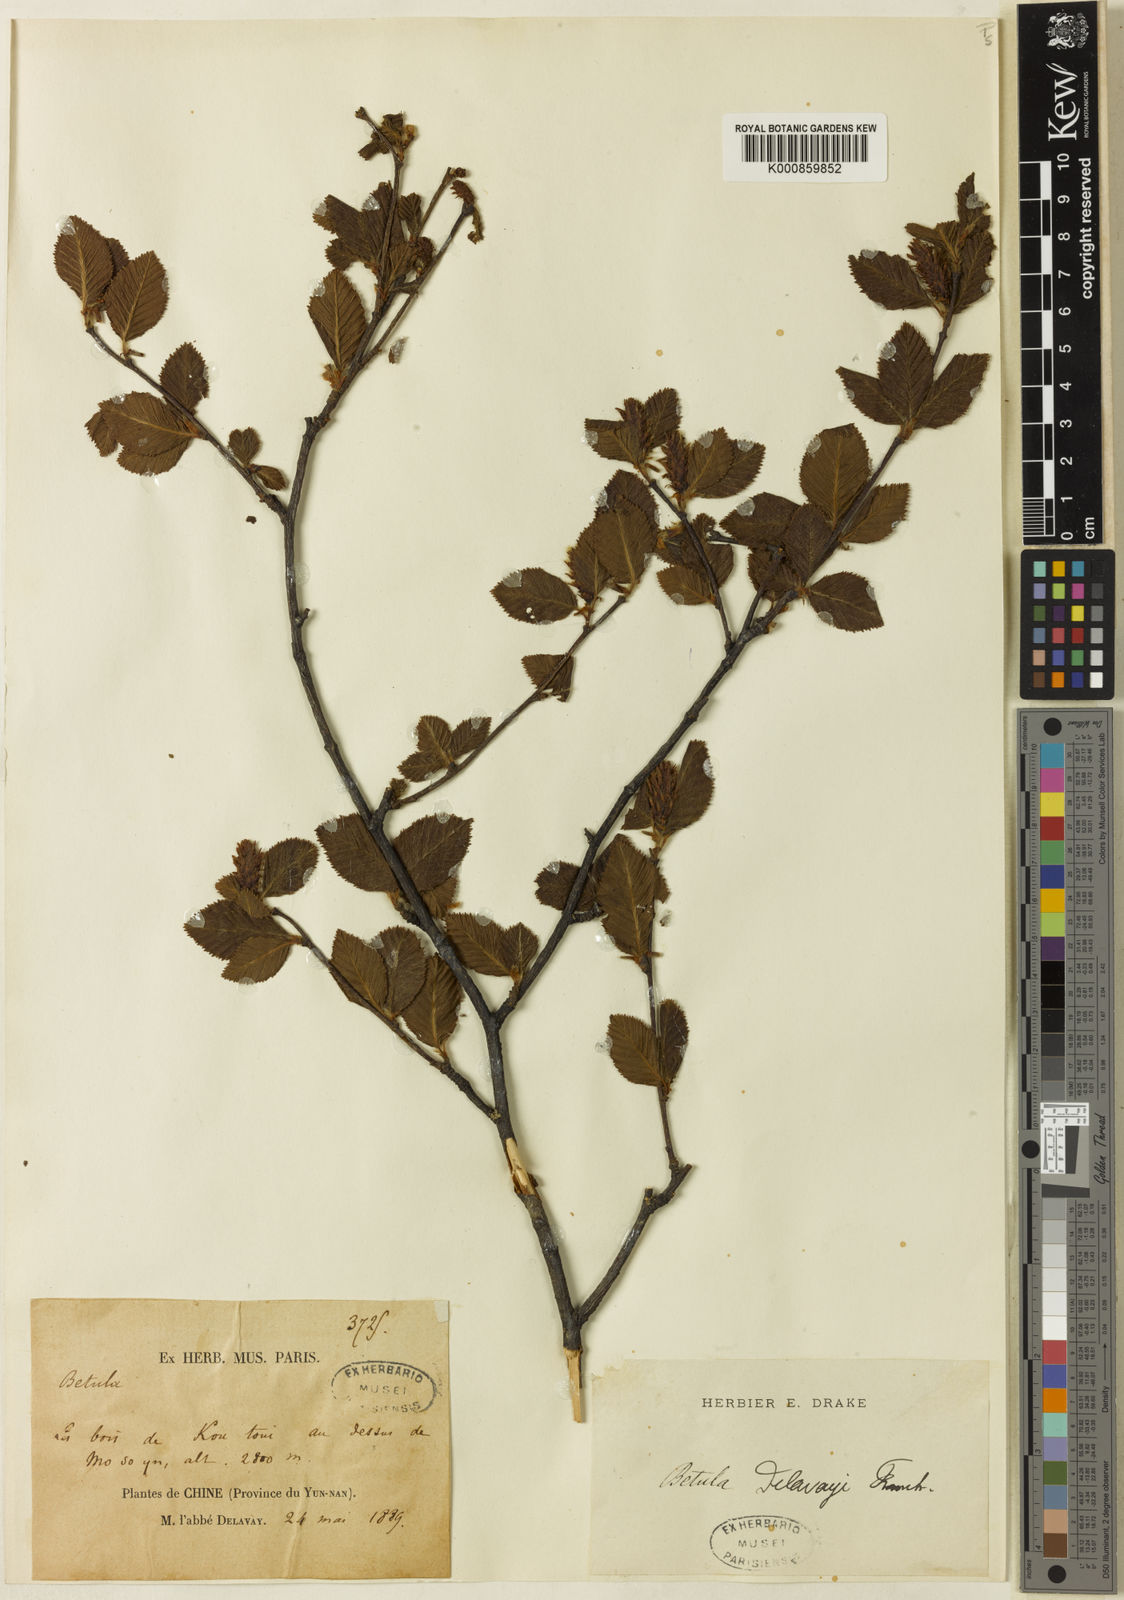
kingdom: Plantae
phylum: Tracheophyta
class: Magnoliopsida
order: Fagales
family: Betulaceae
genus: Betula
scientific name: Betula delavayi
